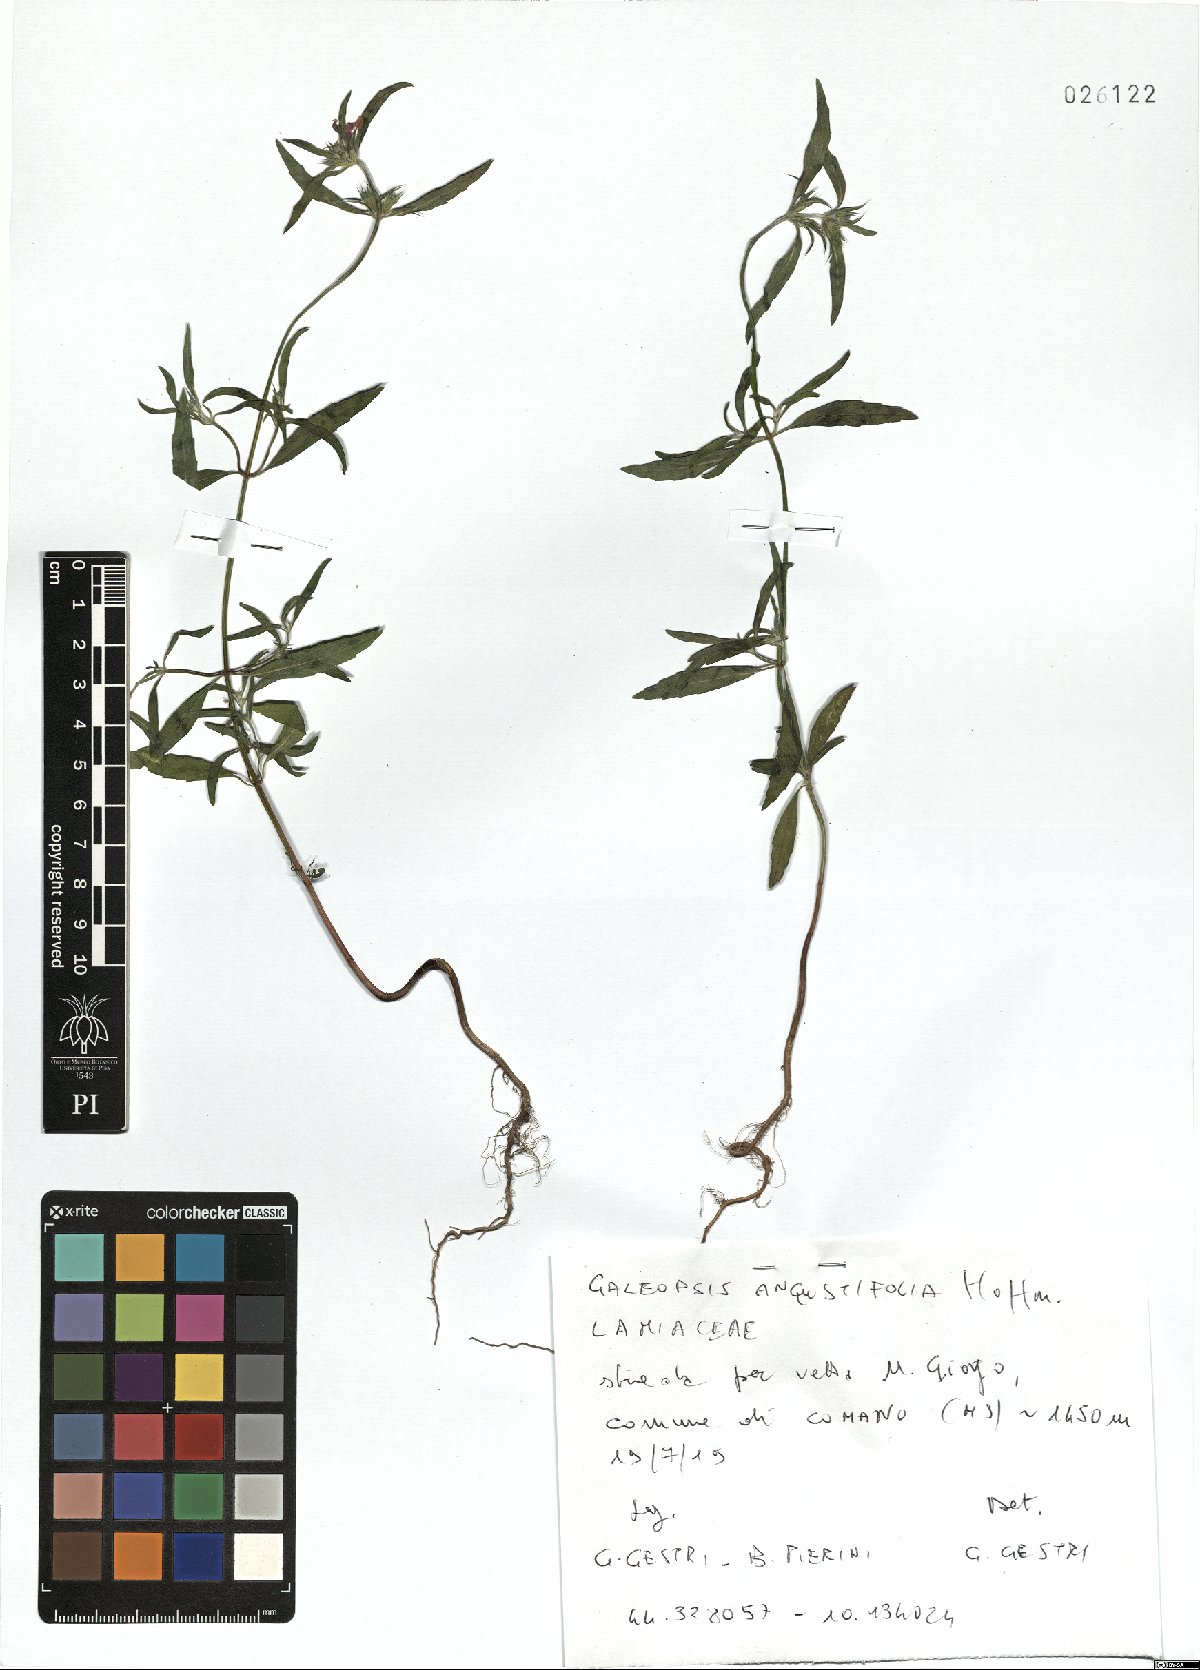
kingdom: Plantae
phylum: Tracheophyta
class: Magnoliopsida
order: Lamiales
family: Lamiaceae
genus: Galeopsis
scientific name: Galeopsis angustifolia
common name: Red hemp-nettle
